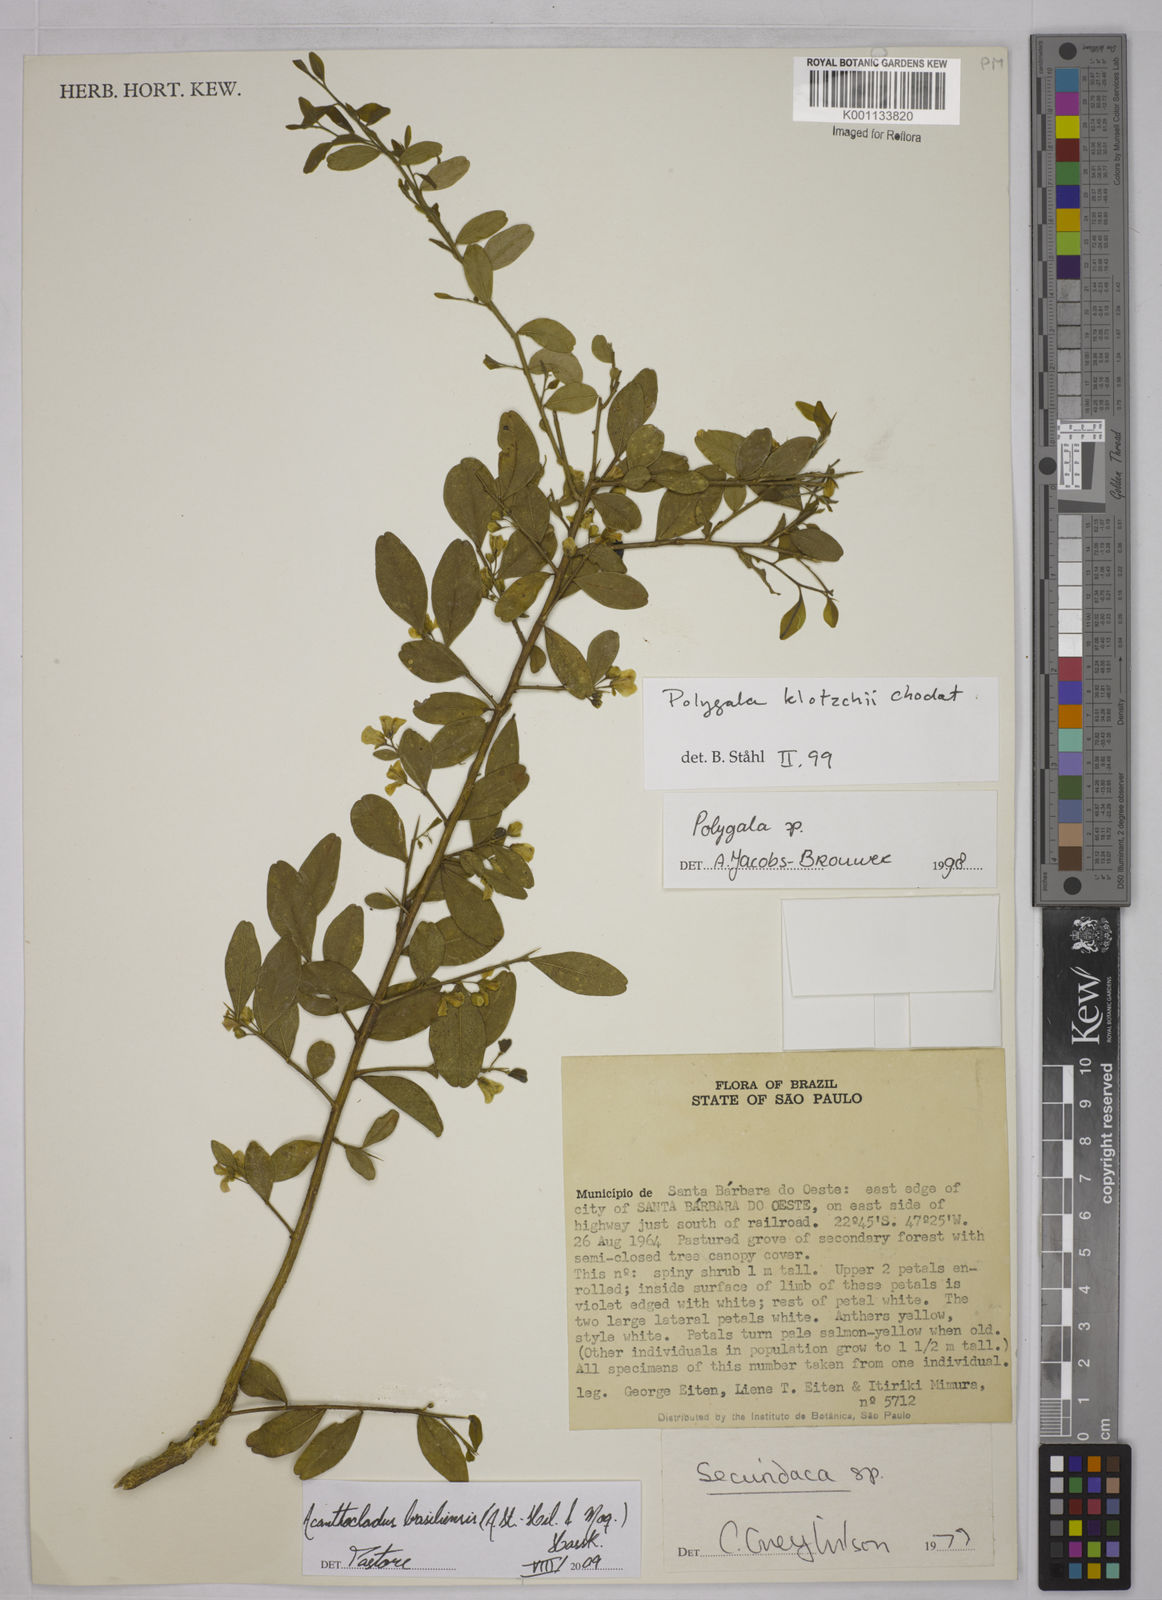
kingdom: Plantae
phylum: Tracheophyta
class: Magnoliopsida
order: Fabales
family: Polygalaceae
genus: Acanthocladus
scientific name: Acanthocladus brasiliensis
